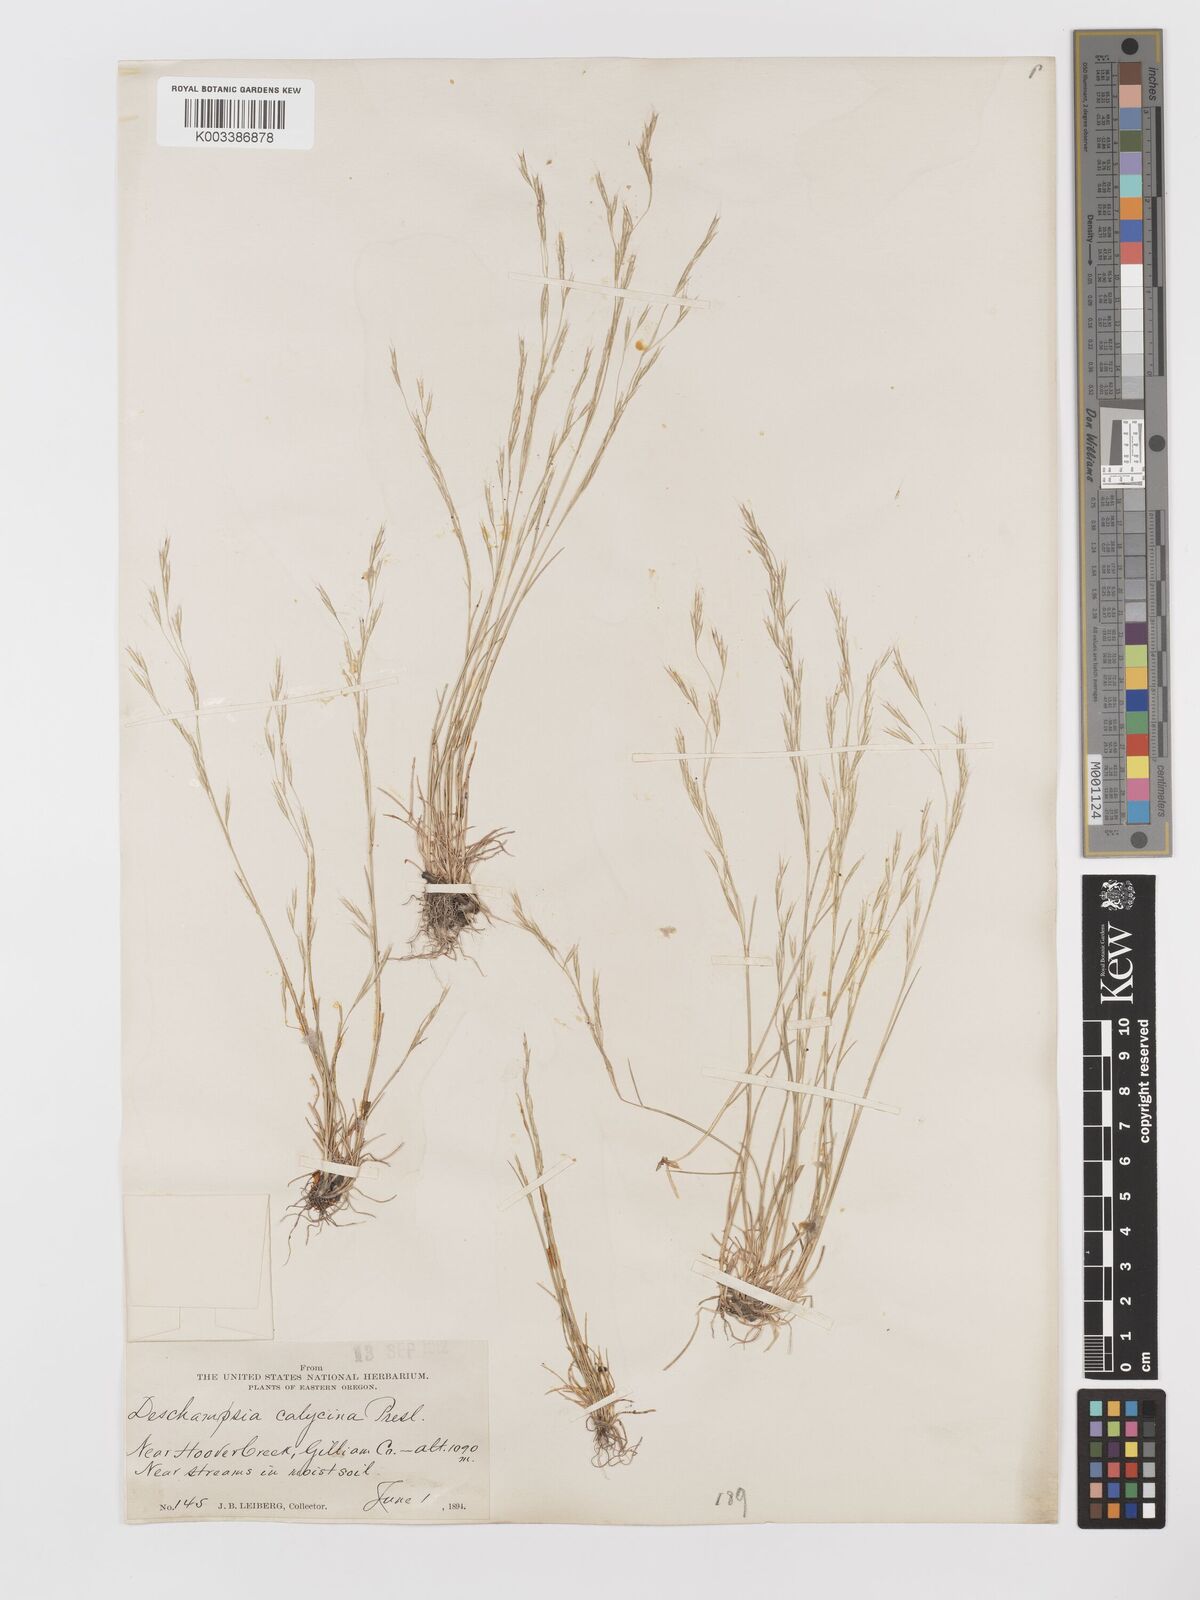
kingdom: Plantae
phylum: Tracheophyta
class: Liliopsida
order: Poales
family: Poaceae
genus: Deschampsia
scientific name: Deschampsia danthonioides
